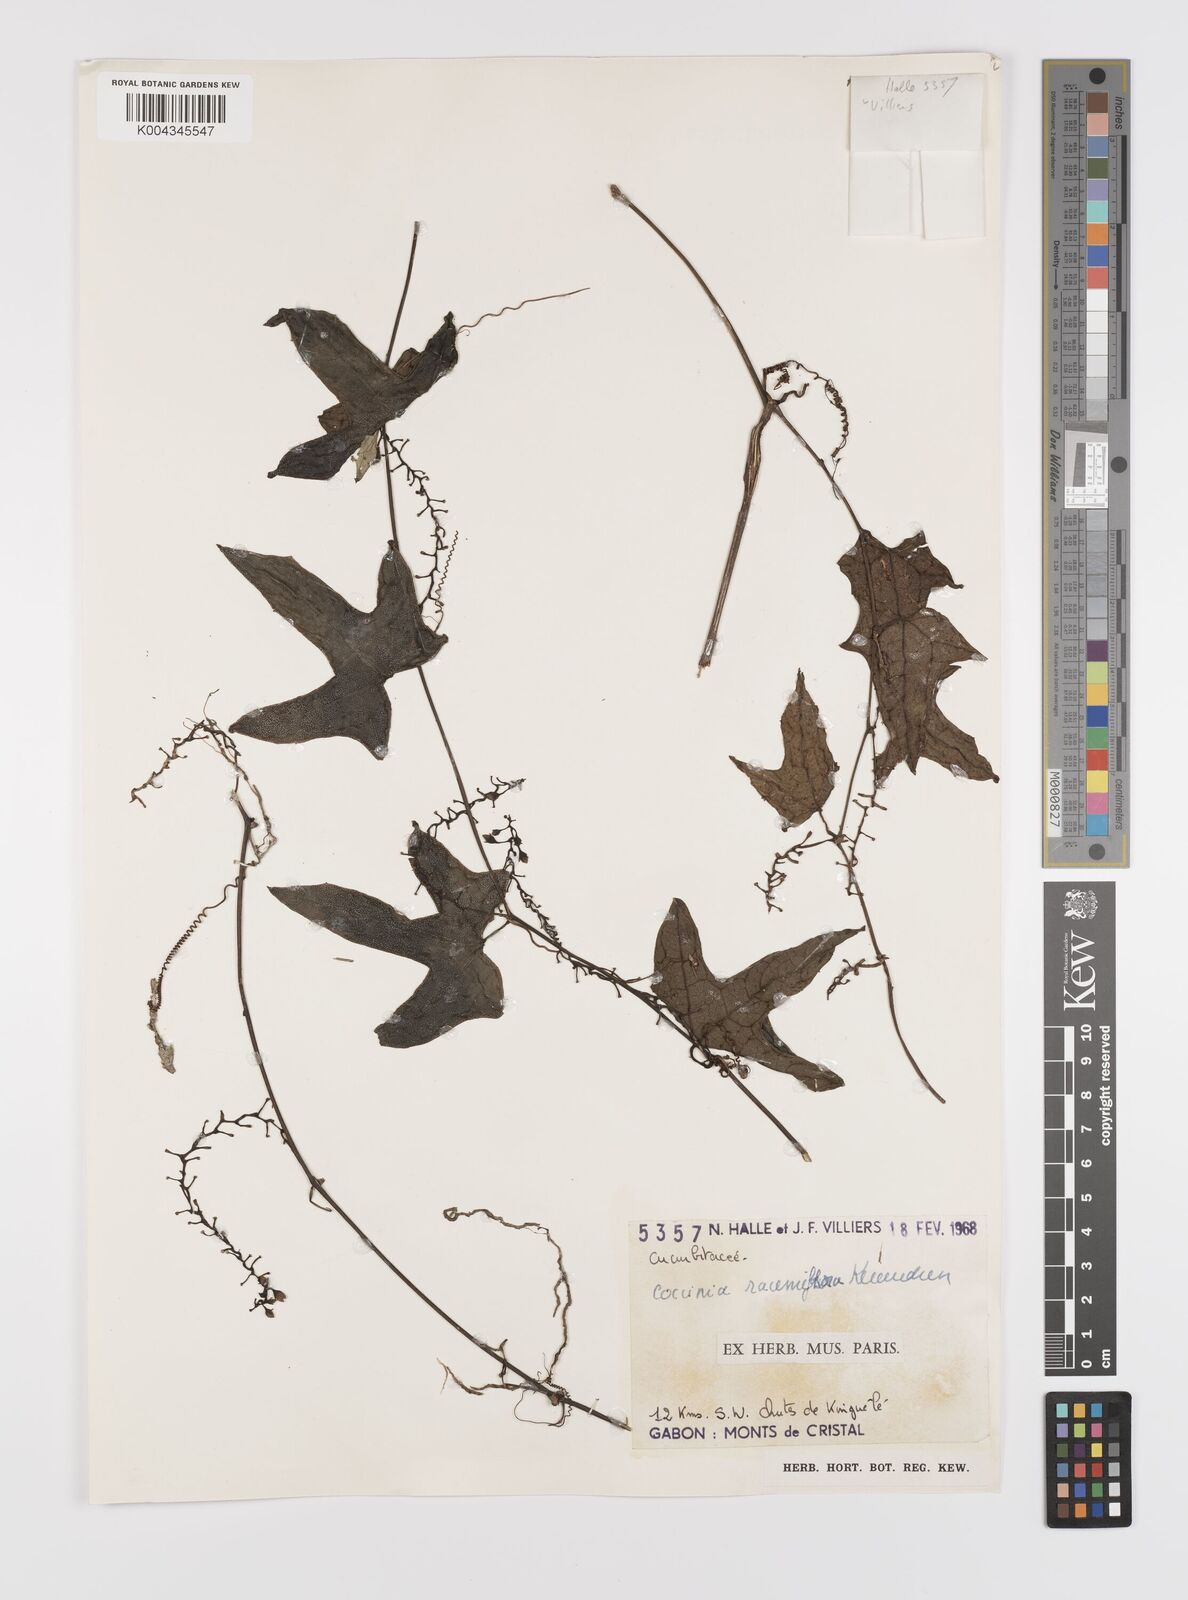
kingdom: Plantae
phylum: Tracheophyta
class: Magnoliopsida
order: Cucurbitales
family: Cucurbitaceae
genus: Coccinia
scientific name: Coccinia racemiflora
